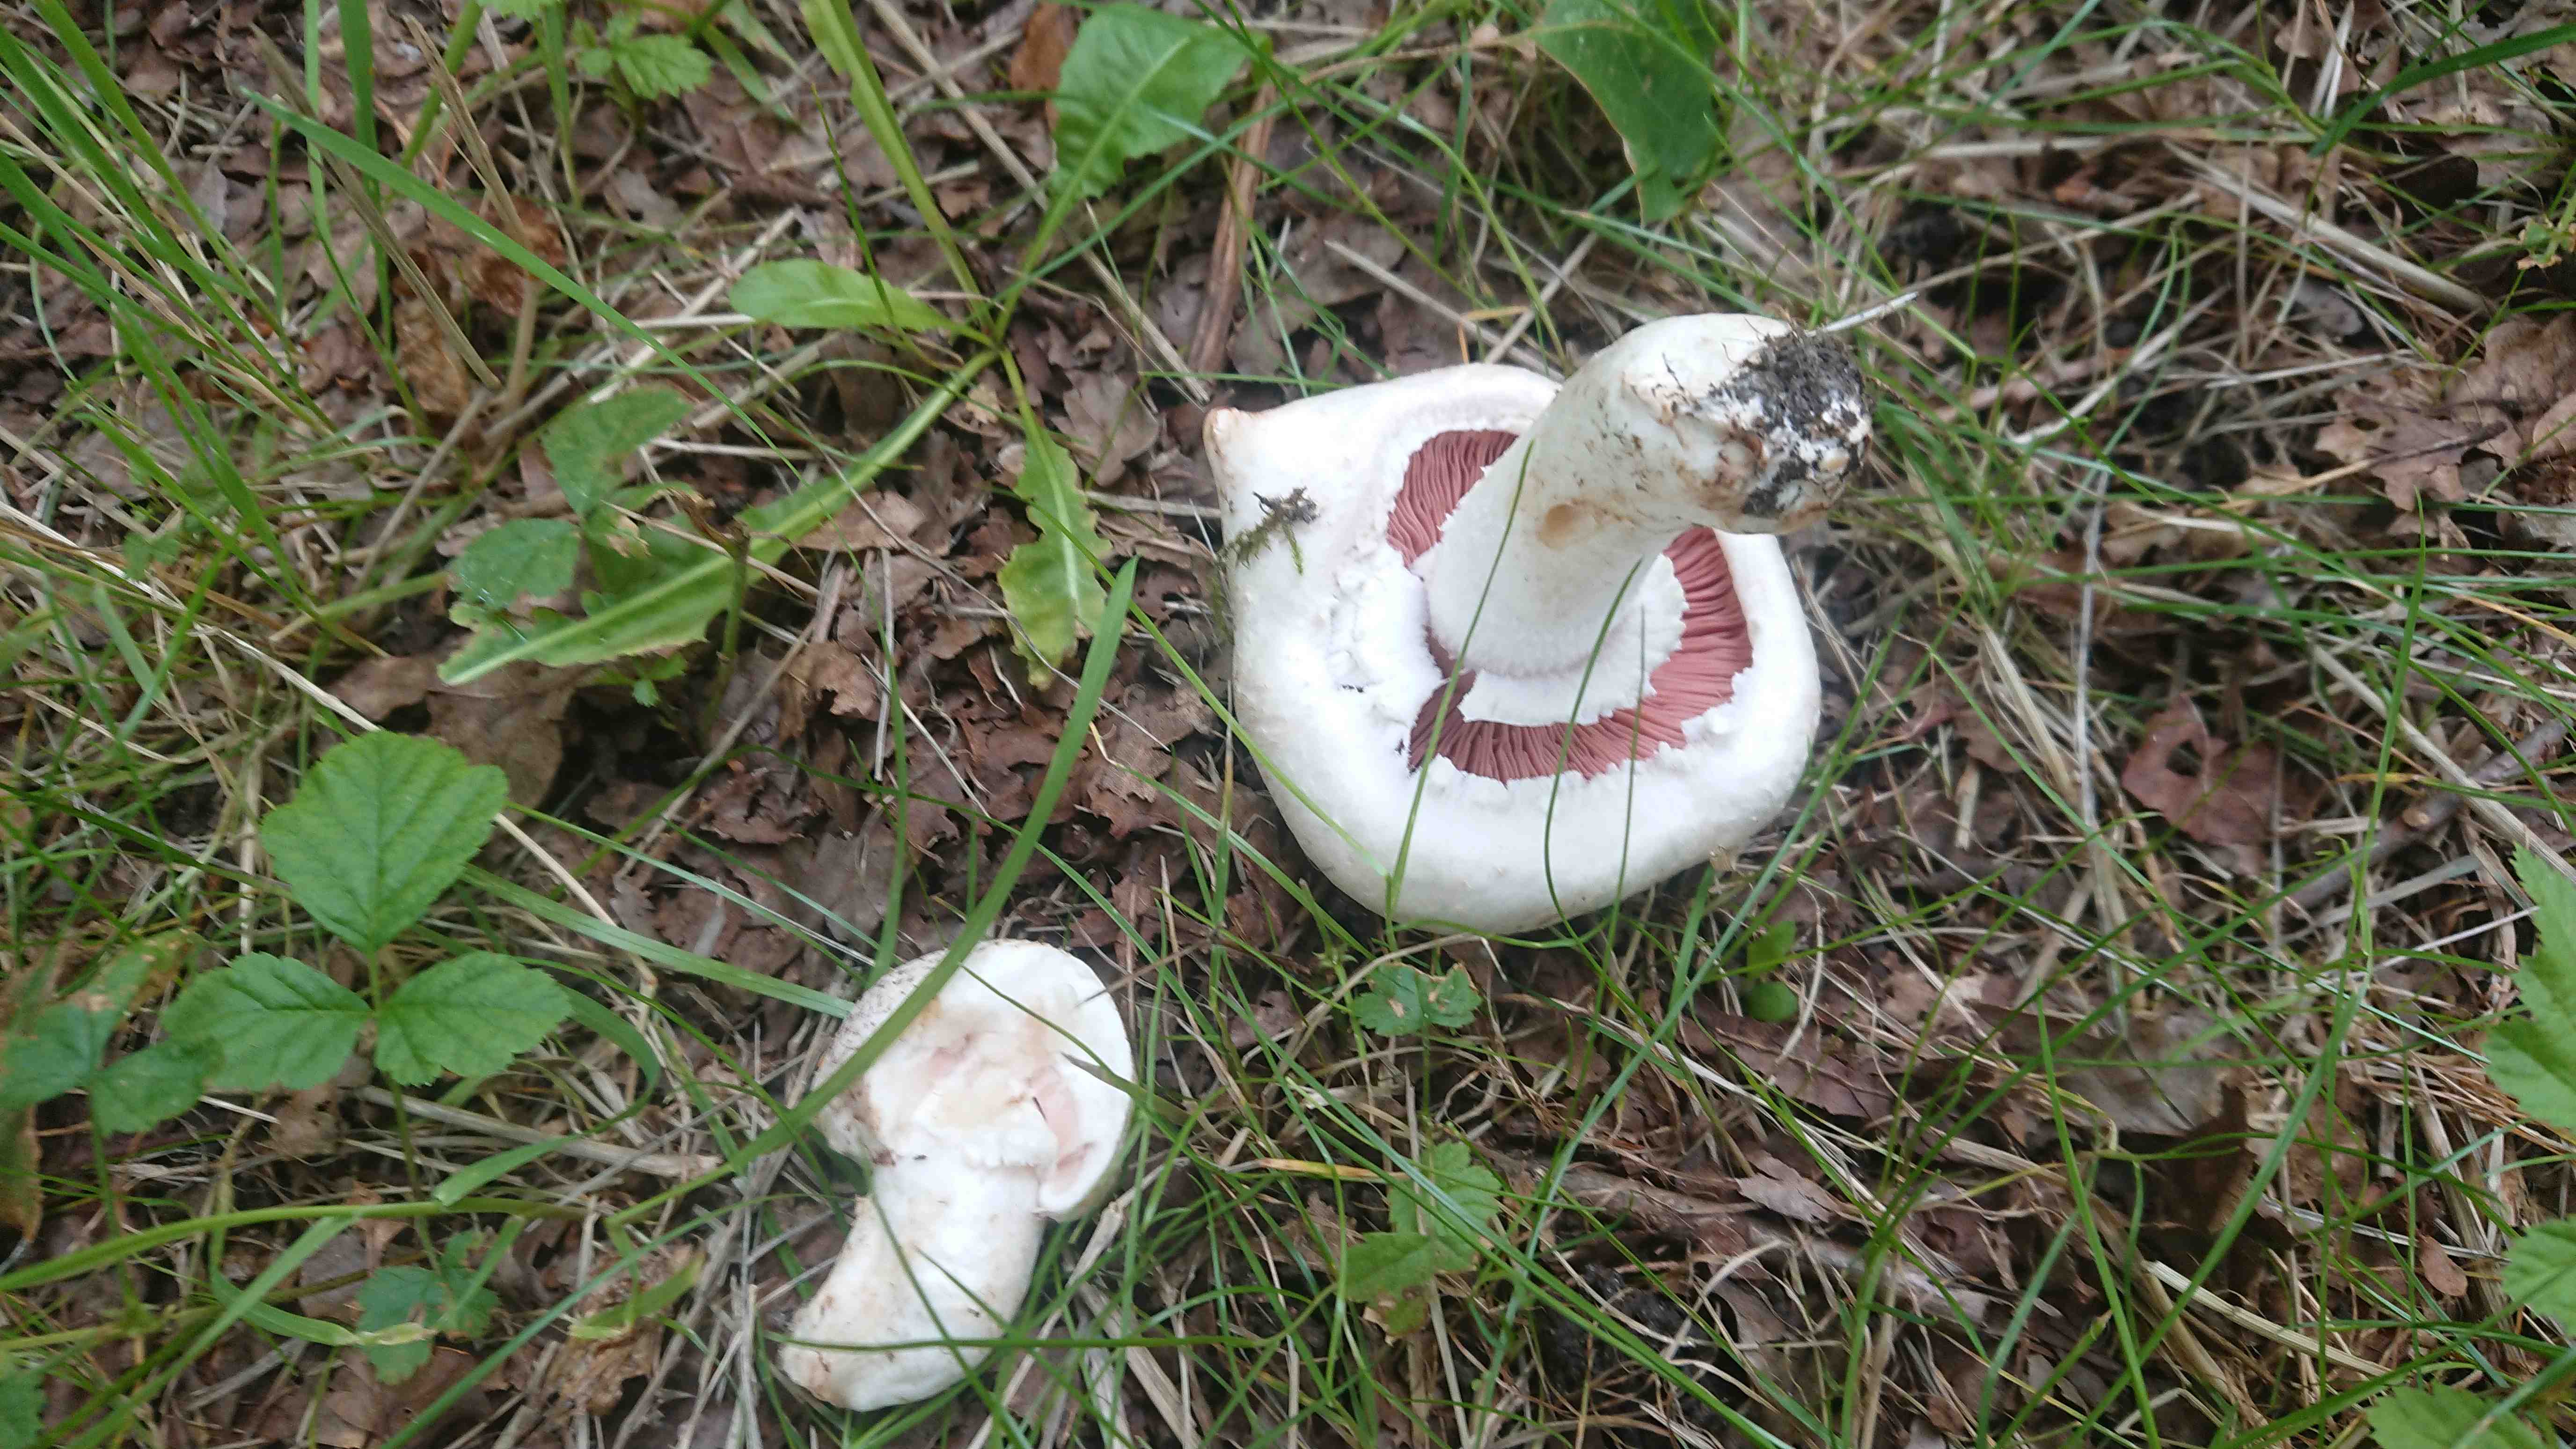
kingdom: Fungi
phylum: Basidiomycota
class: Agaricomycetes
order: Agaricales
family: Agaricaceae
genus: Agaricus
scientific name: Agaricus campestris
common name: mark-champignon
